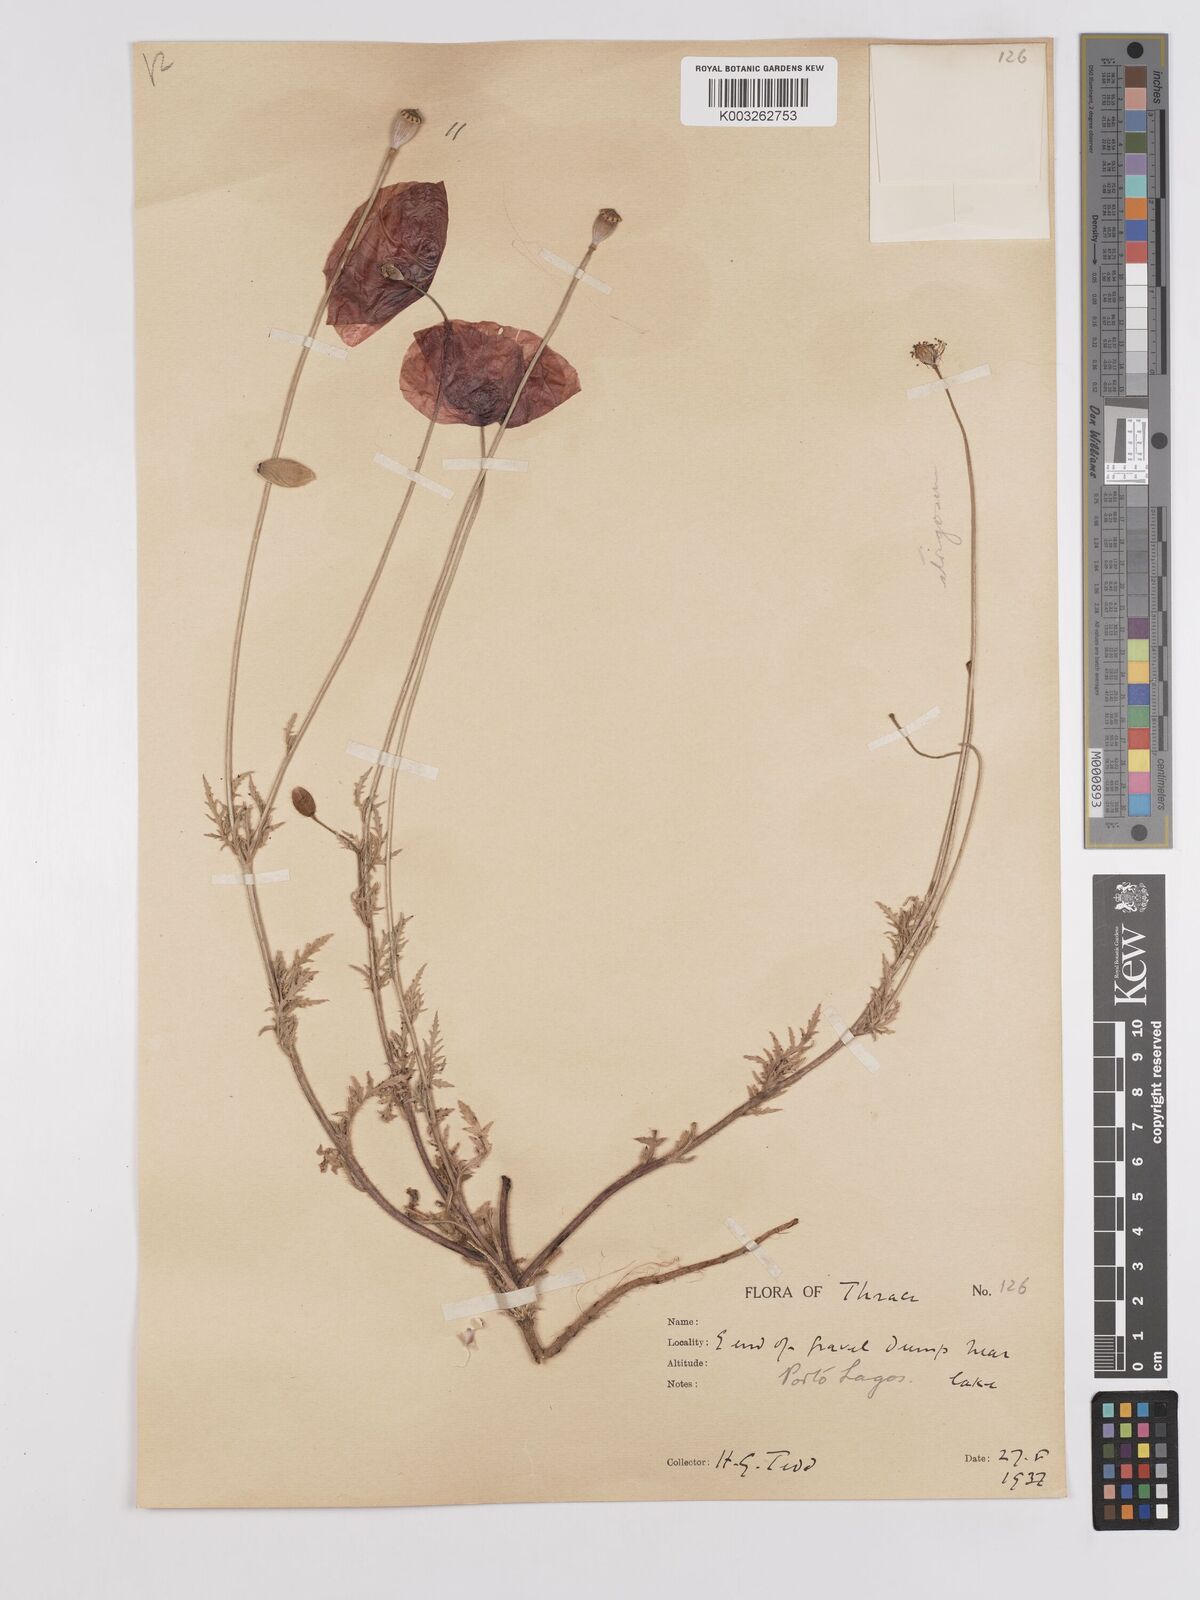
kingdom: Plantae
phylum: Tracheophyta
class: Magnoliopsida
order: Ranunculales
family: Papaveraceae
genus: Papaver
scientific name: Papaver
